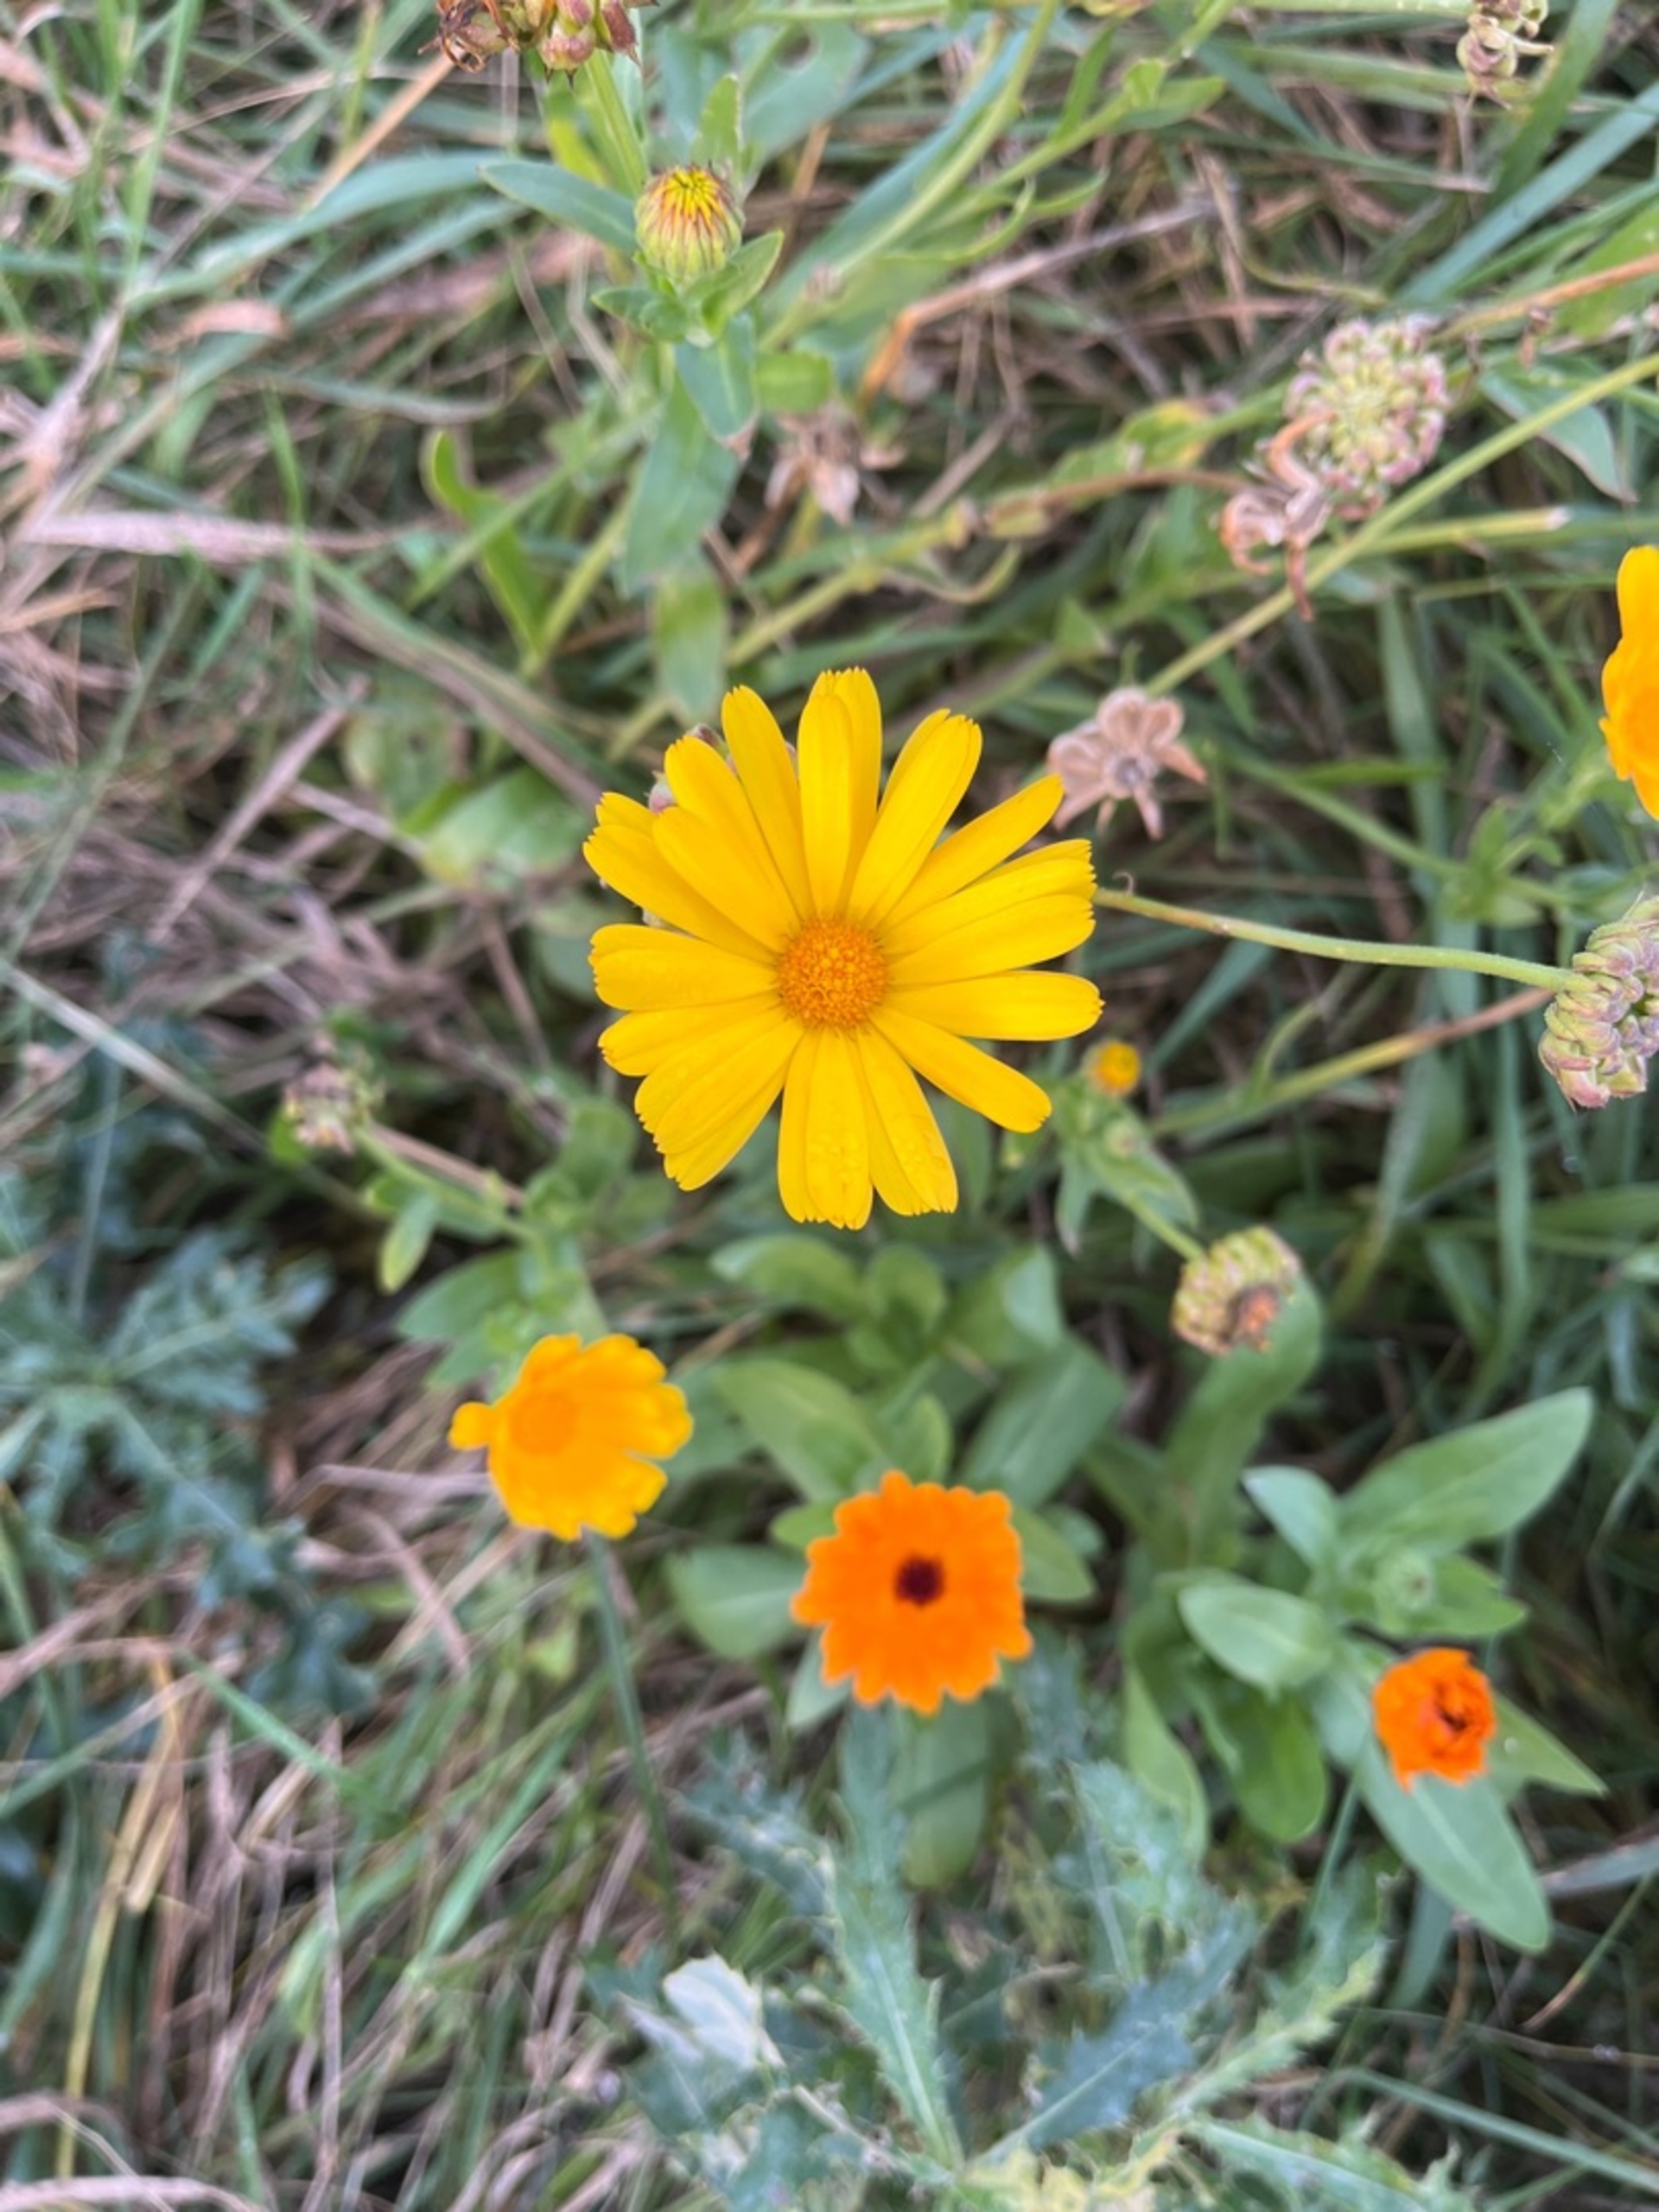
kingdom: Plantae
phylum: Tracheophyta
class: Magnoliopsida
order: Asterales
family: Asteraceae
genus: Calendula
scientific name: Calendula officinalis
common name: Have-morgenfrue
